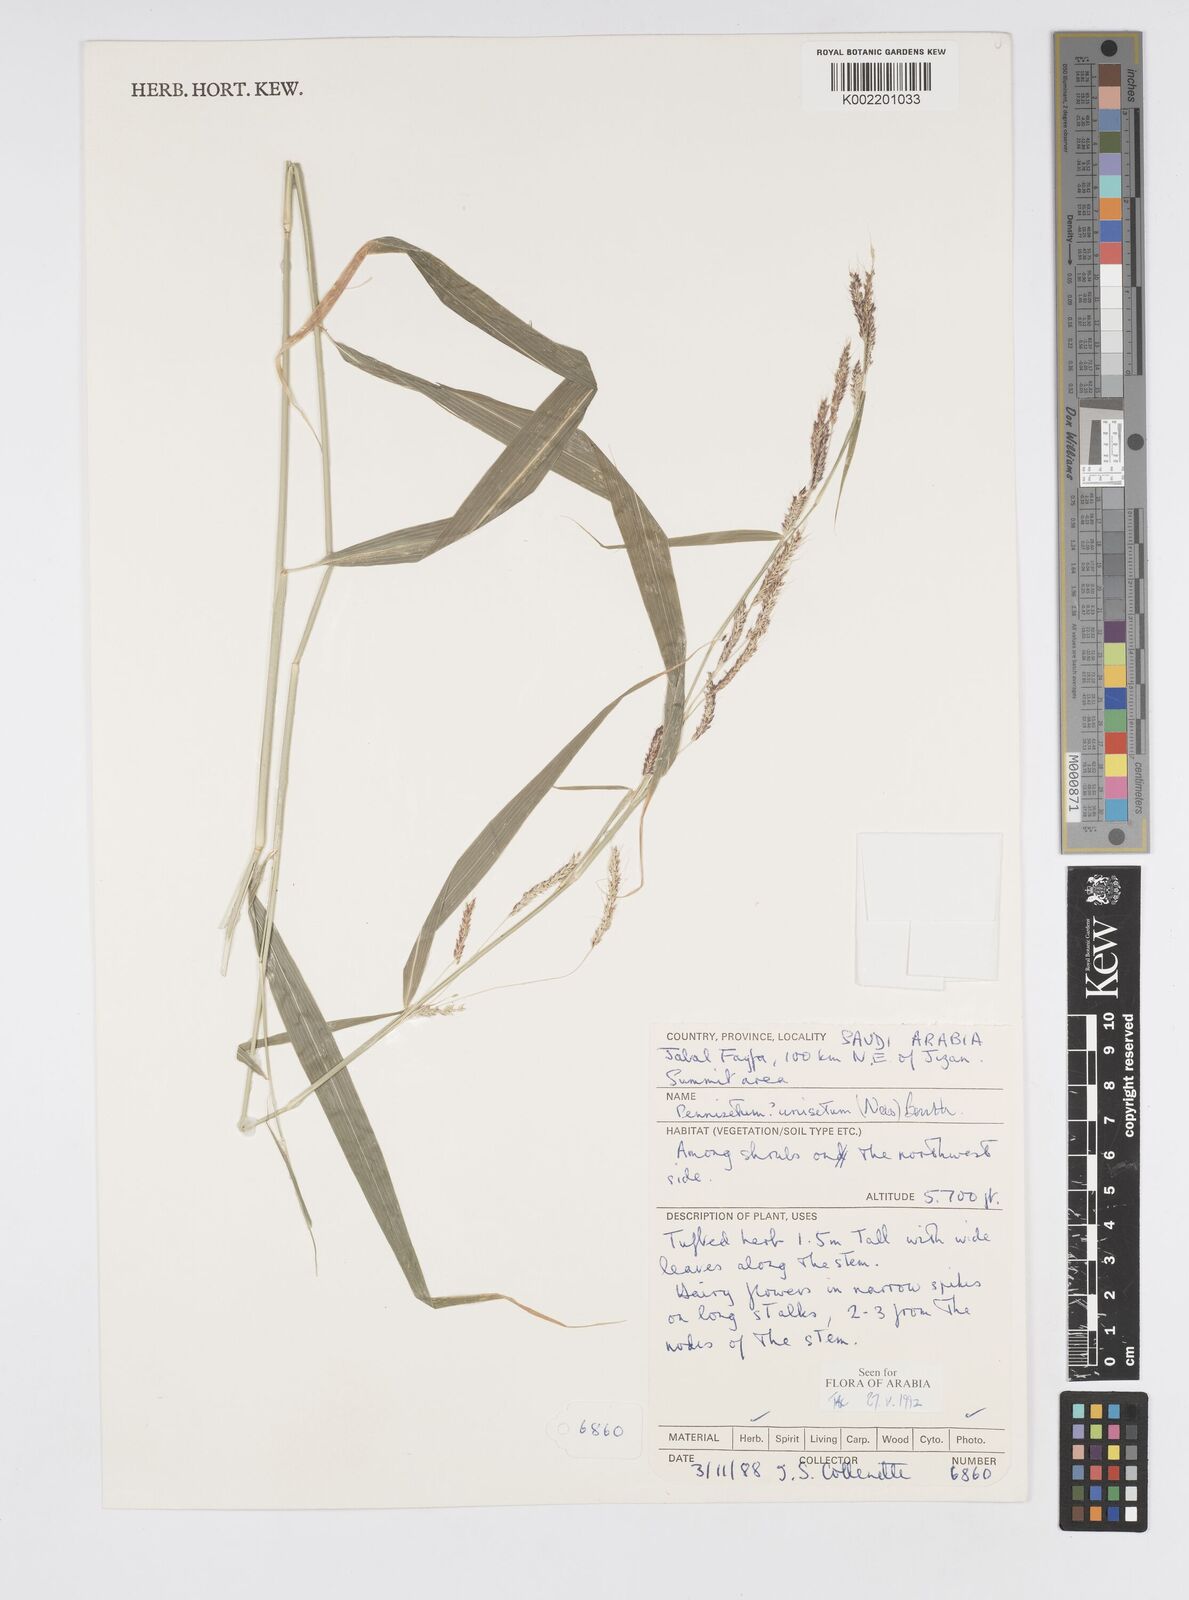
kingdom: Plantae
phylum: Tracheophyta
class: Liliopsida
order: Poales
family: Poaceae
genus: Cenchrus
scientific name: Cenchrus unisetus
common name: Natal grass
